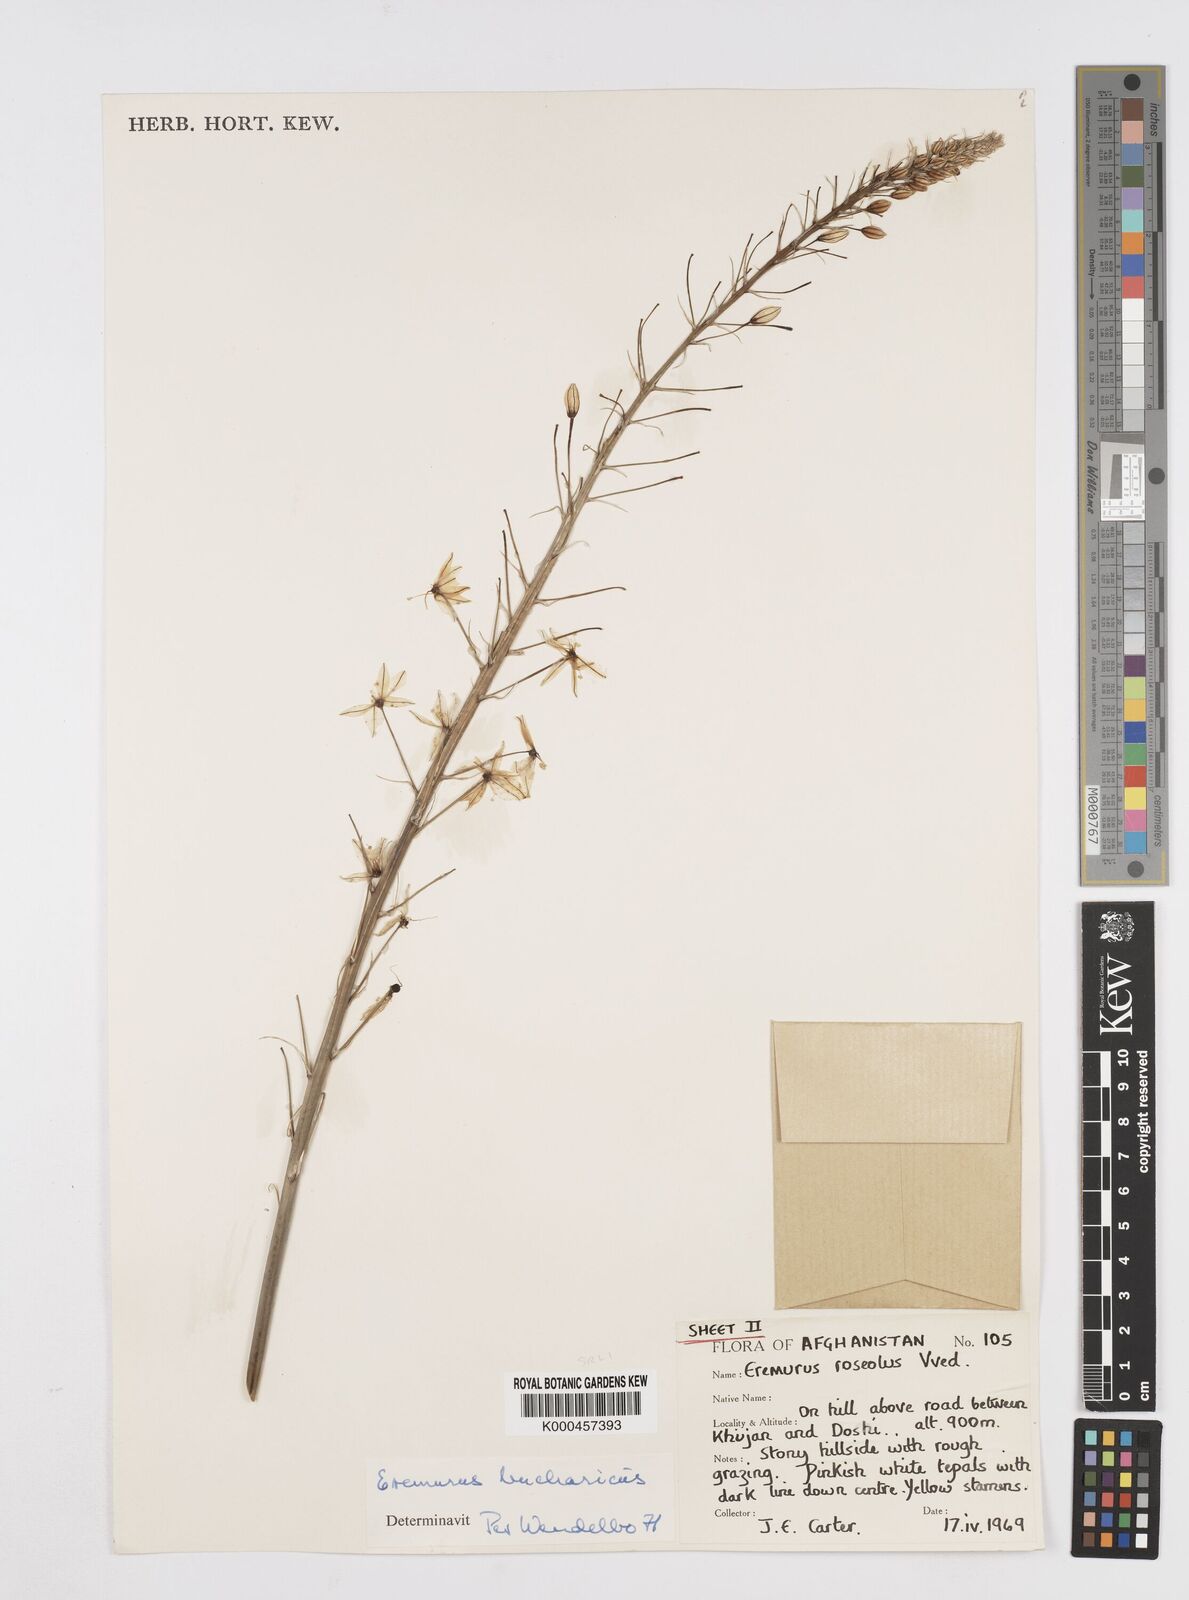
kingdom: Plantae
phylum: Tracheophyta
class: Liliopsida
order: Asparagales
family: Asphodelaceae
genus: Eremurus
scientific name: Eremurus bucharicus
